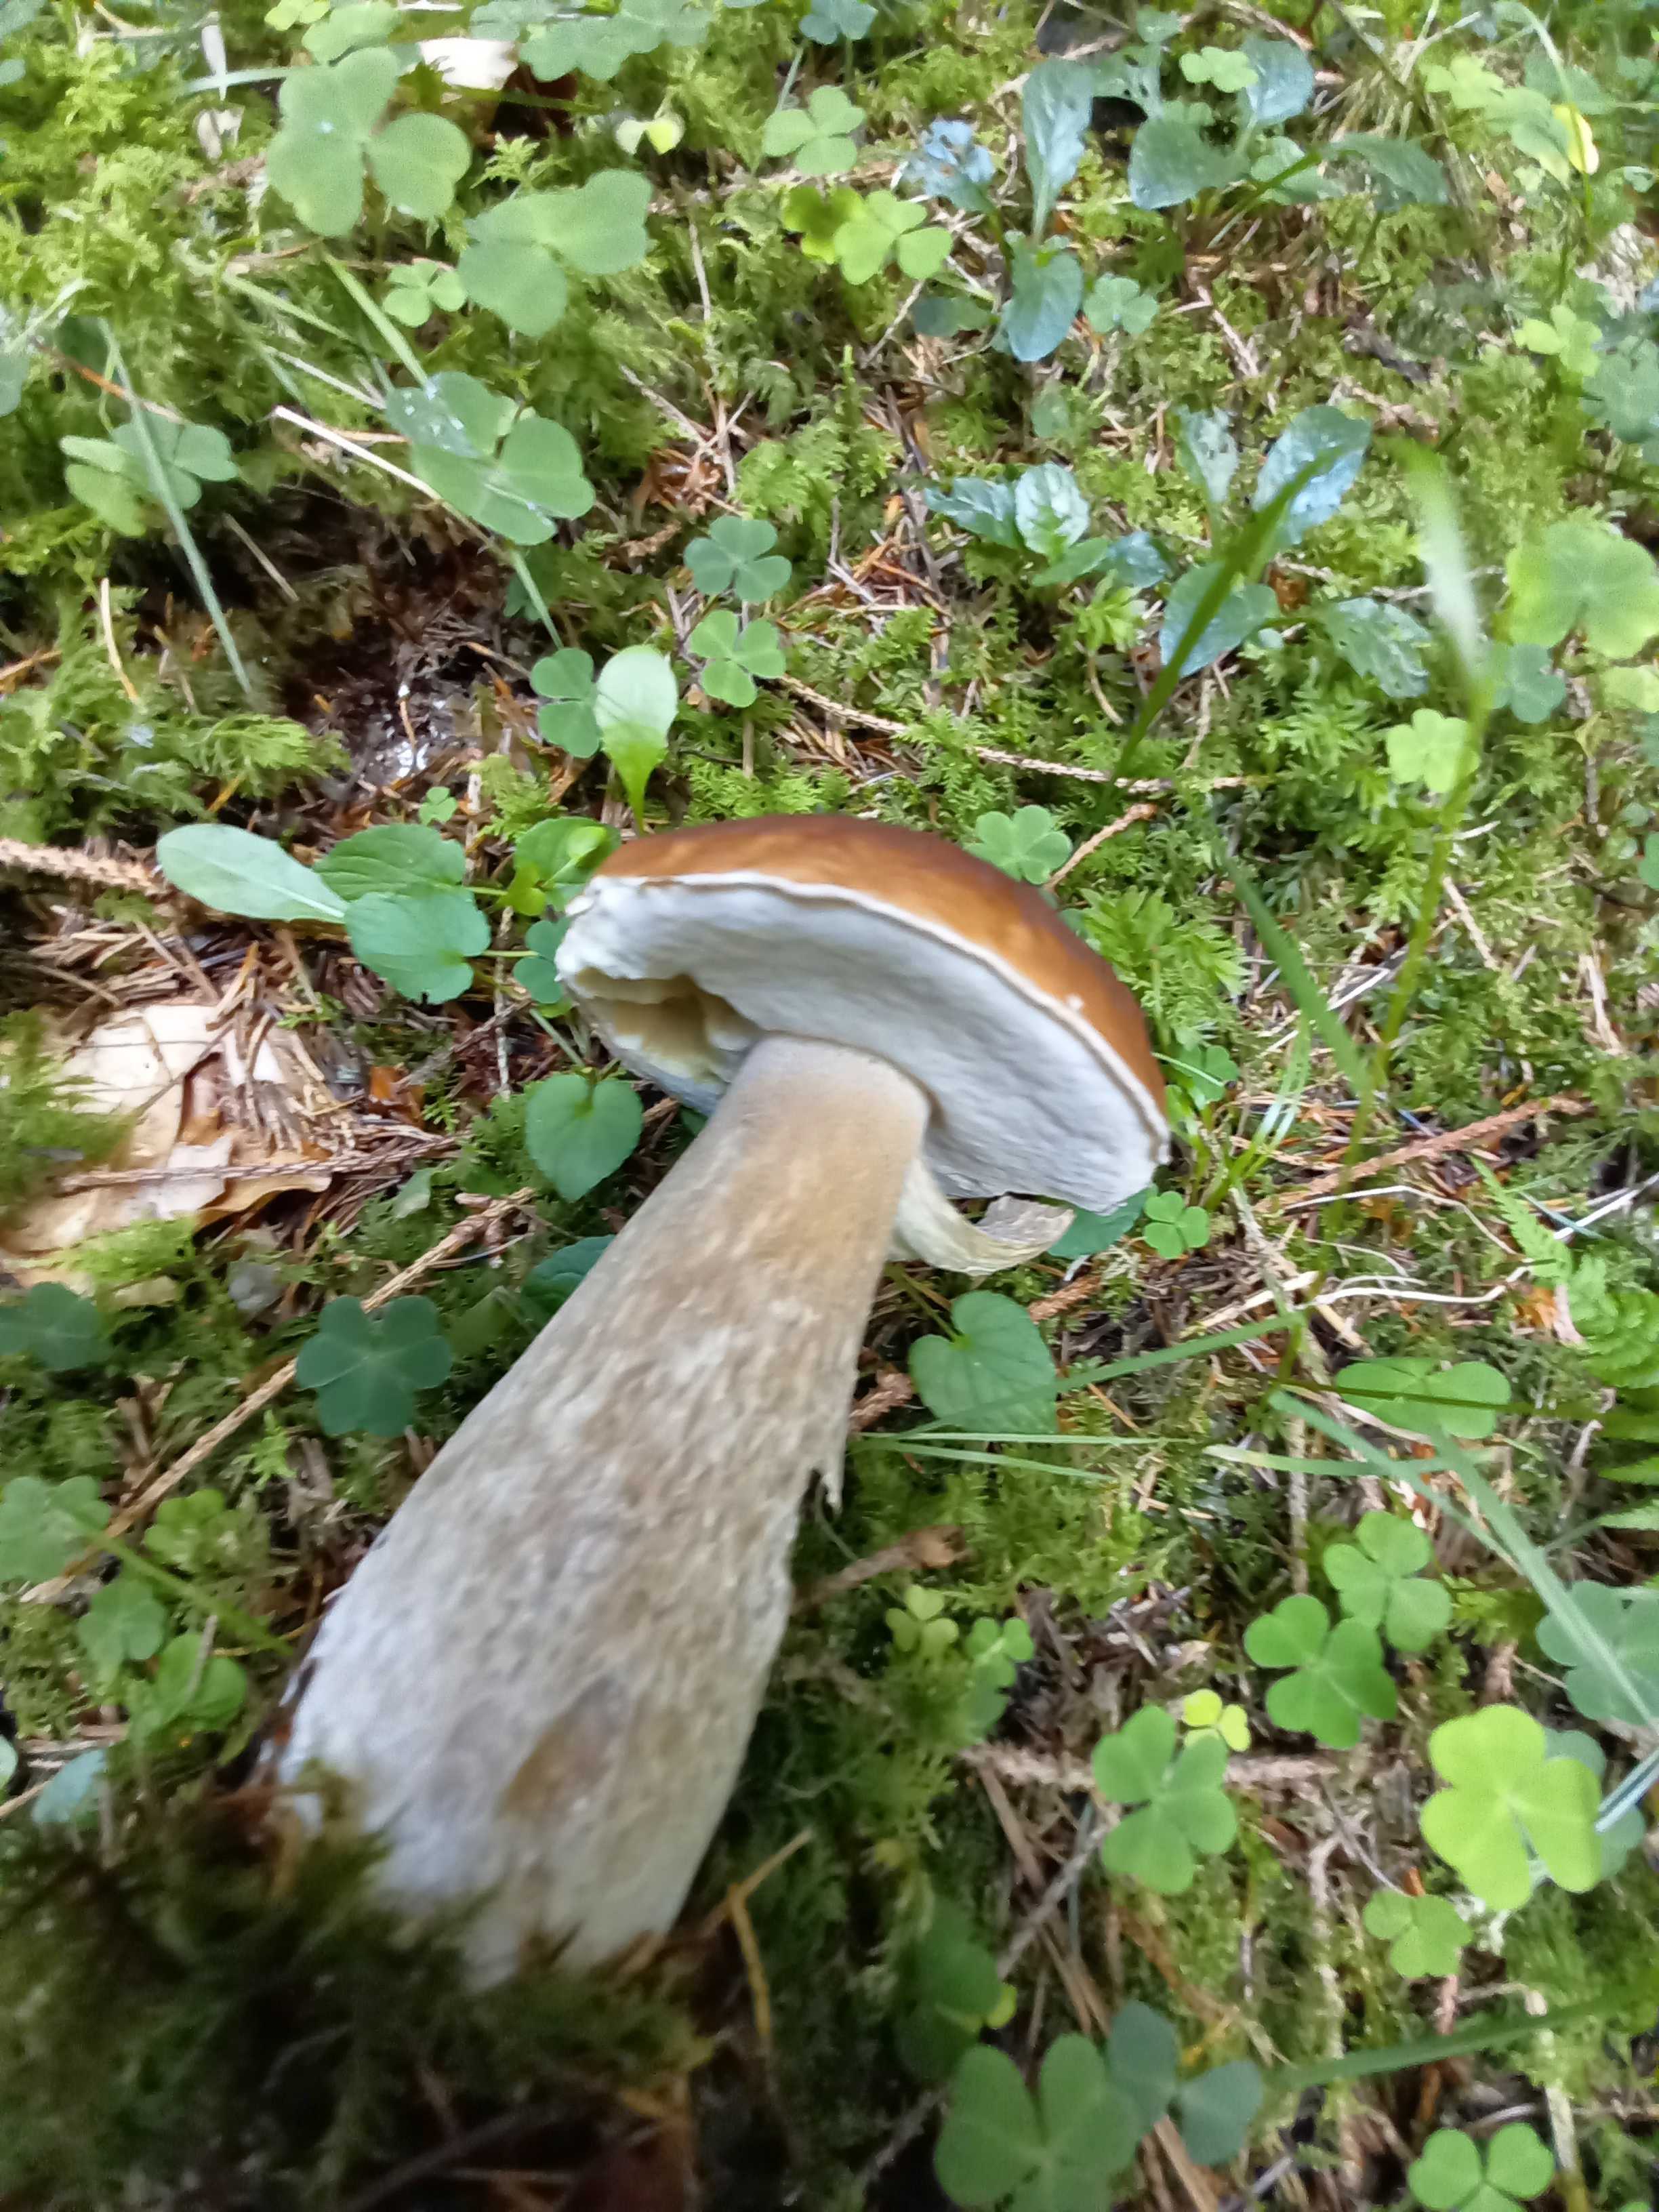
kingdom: Fungi
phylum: Basidiomycota
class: Agaricomycetes
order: Boletales
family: Boletaceae
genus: Boletus
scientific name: Boletus edulis
